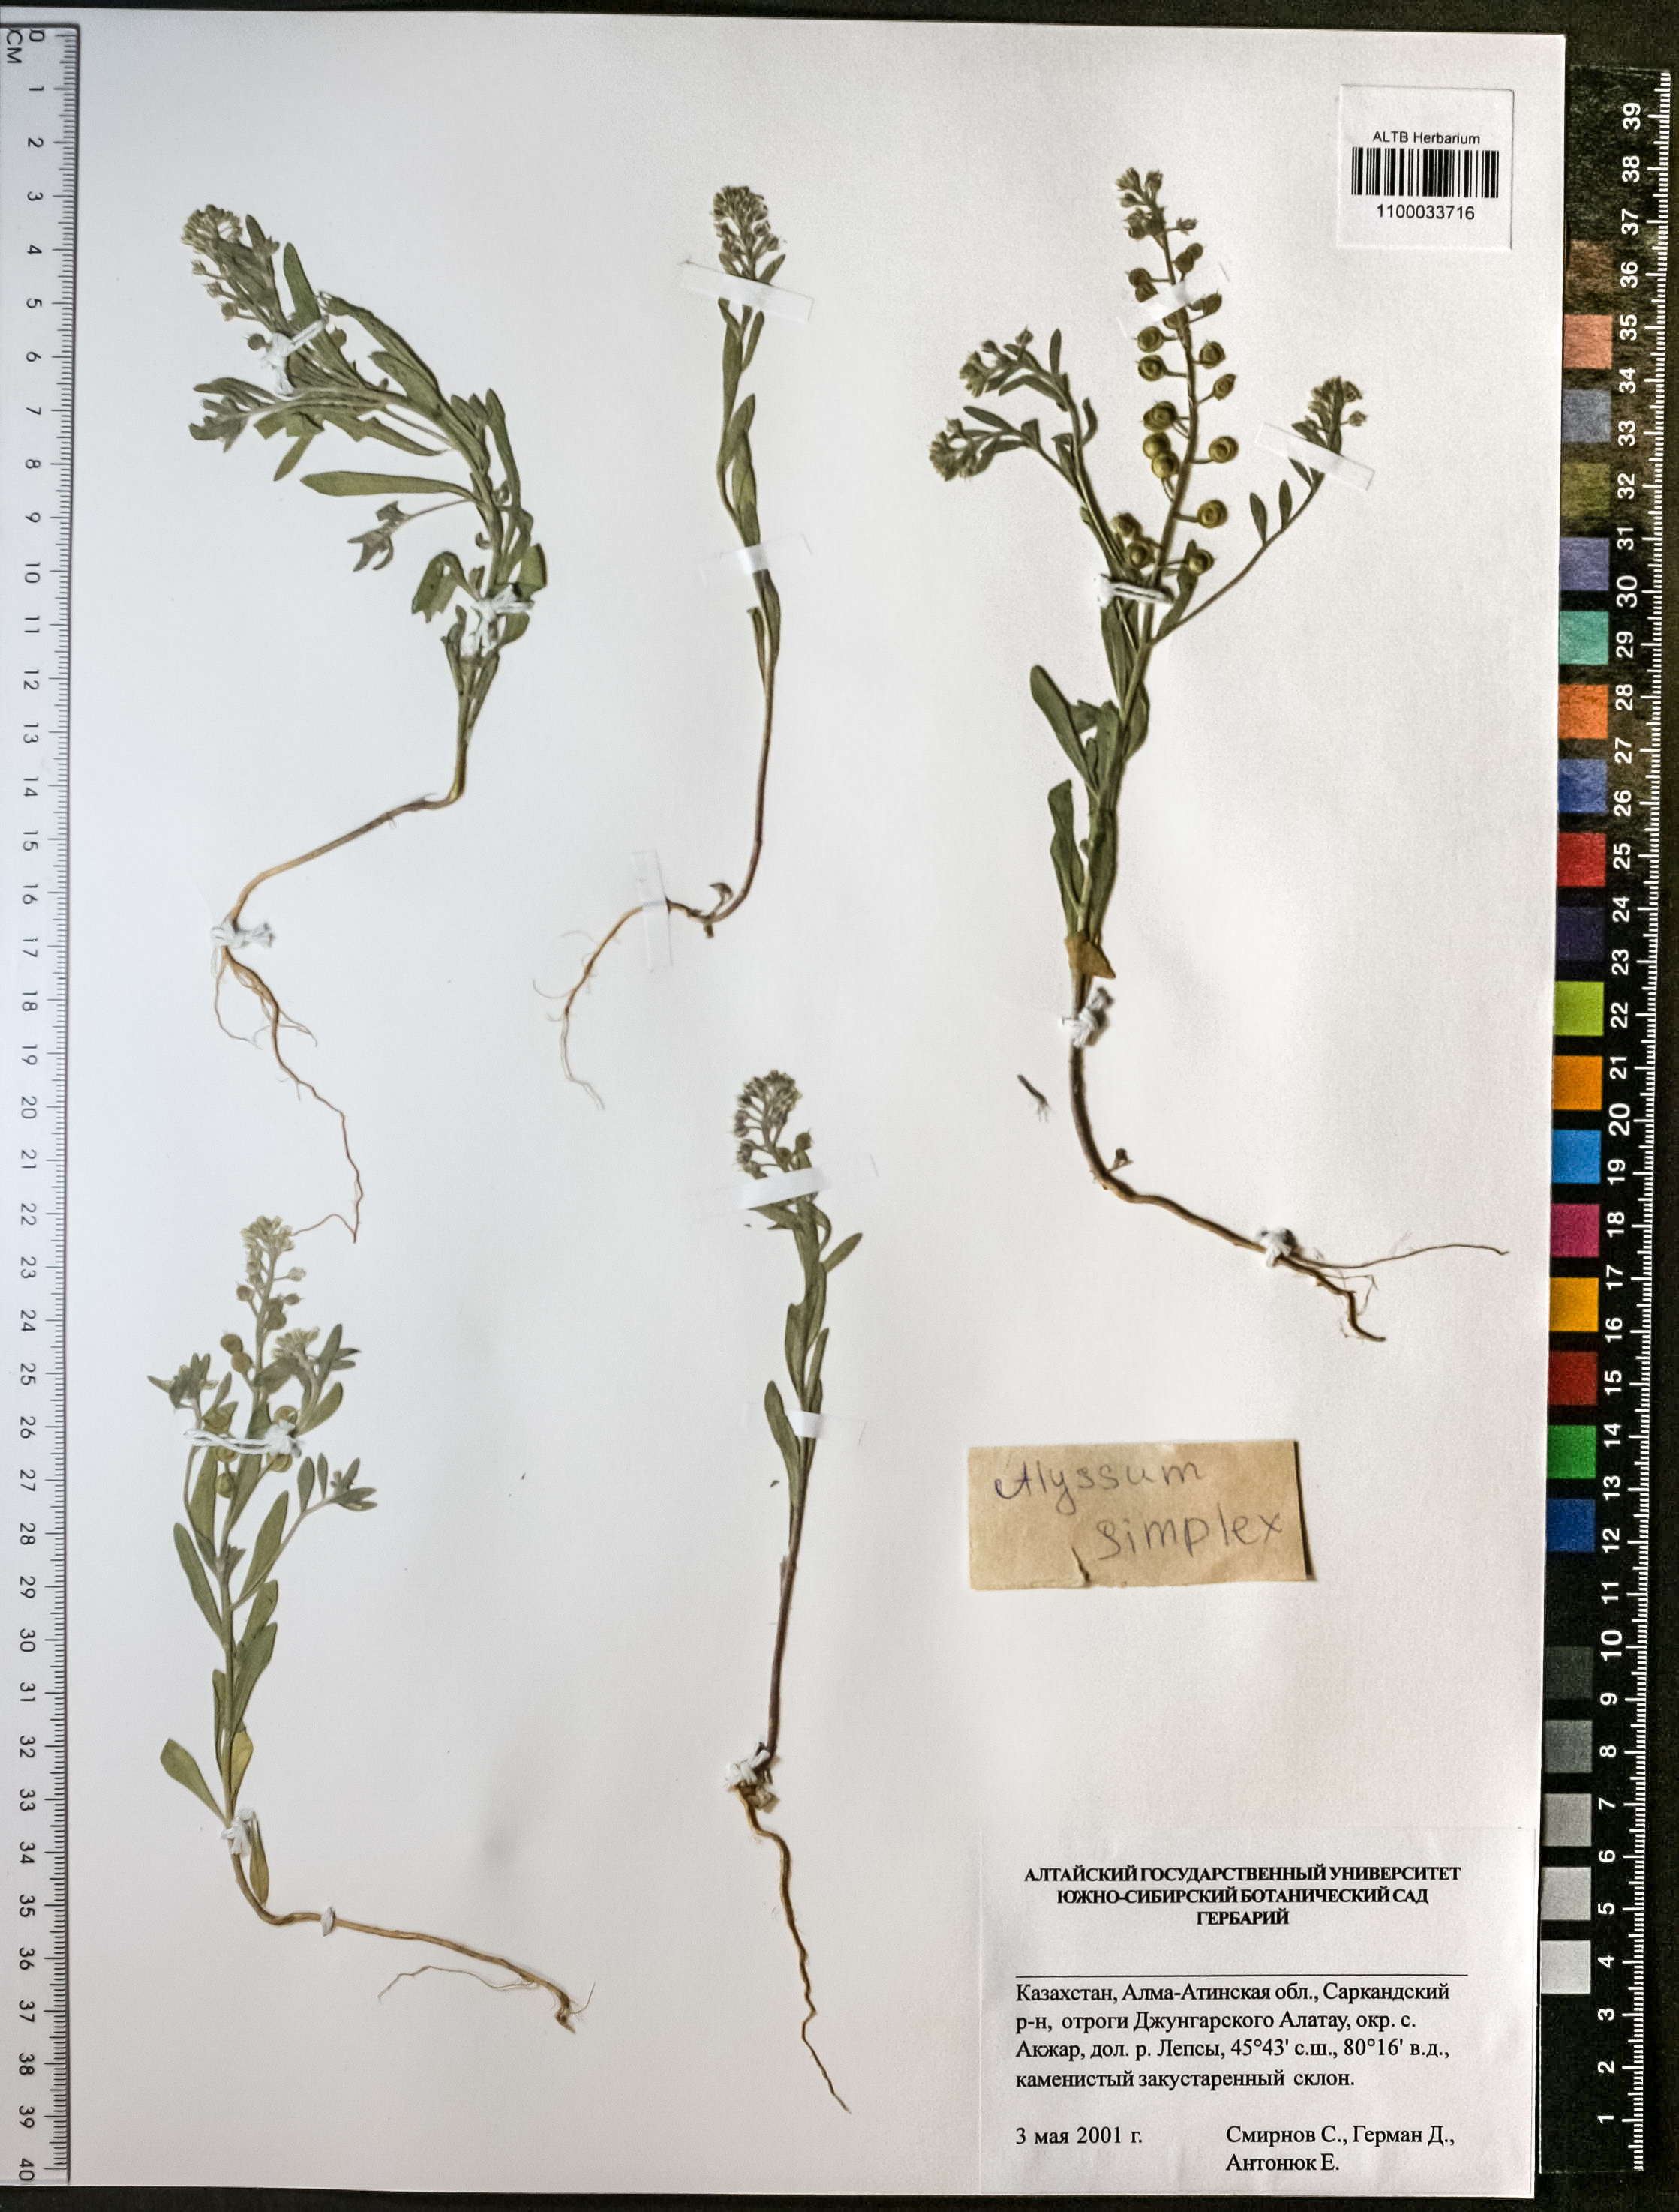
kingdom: Plantae
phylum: Tracheophyta
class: Magnoliopsida
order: Brassicales
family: Brassicaceae
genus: Alyssum
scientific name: Alyssum simplex
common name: Alyssum
